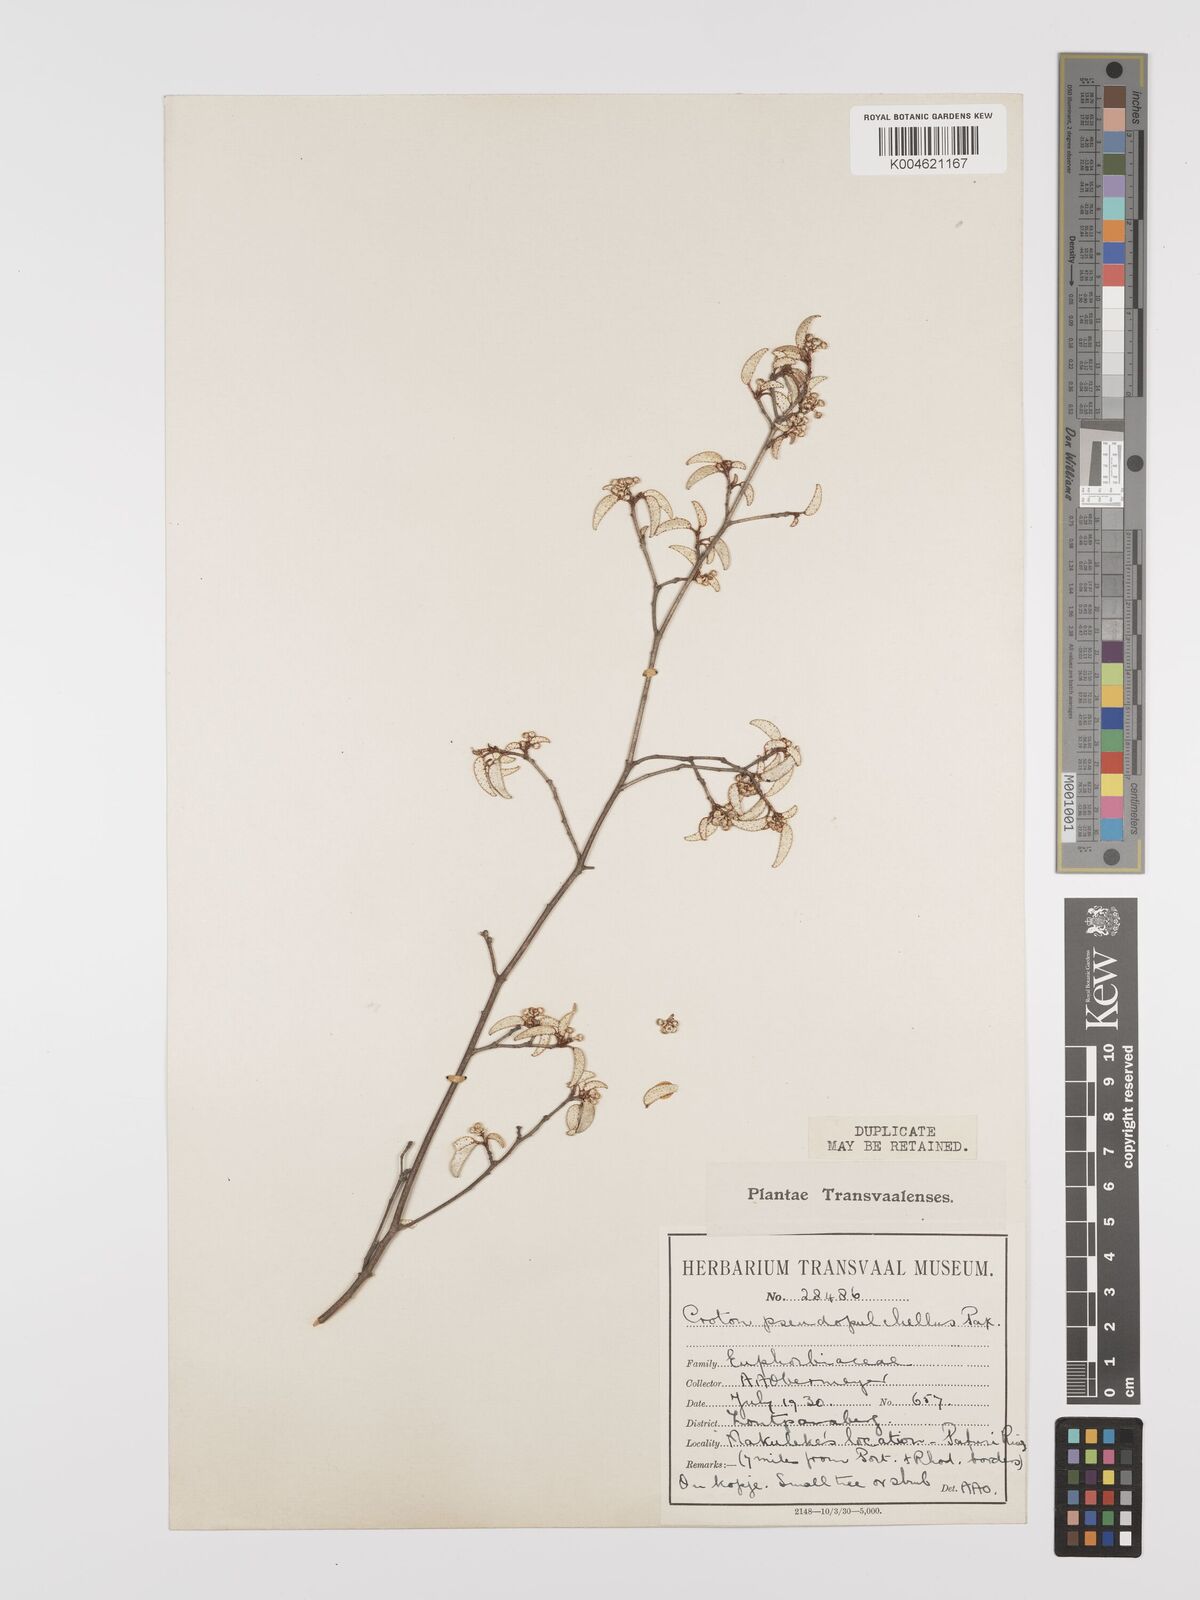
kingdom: Plantae
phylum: Tracheophyta
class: Magnoliopsida
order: Malpighiales
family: Euphorbiaceae
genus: Croton
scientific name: Croton pseudopulchellus
